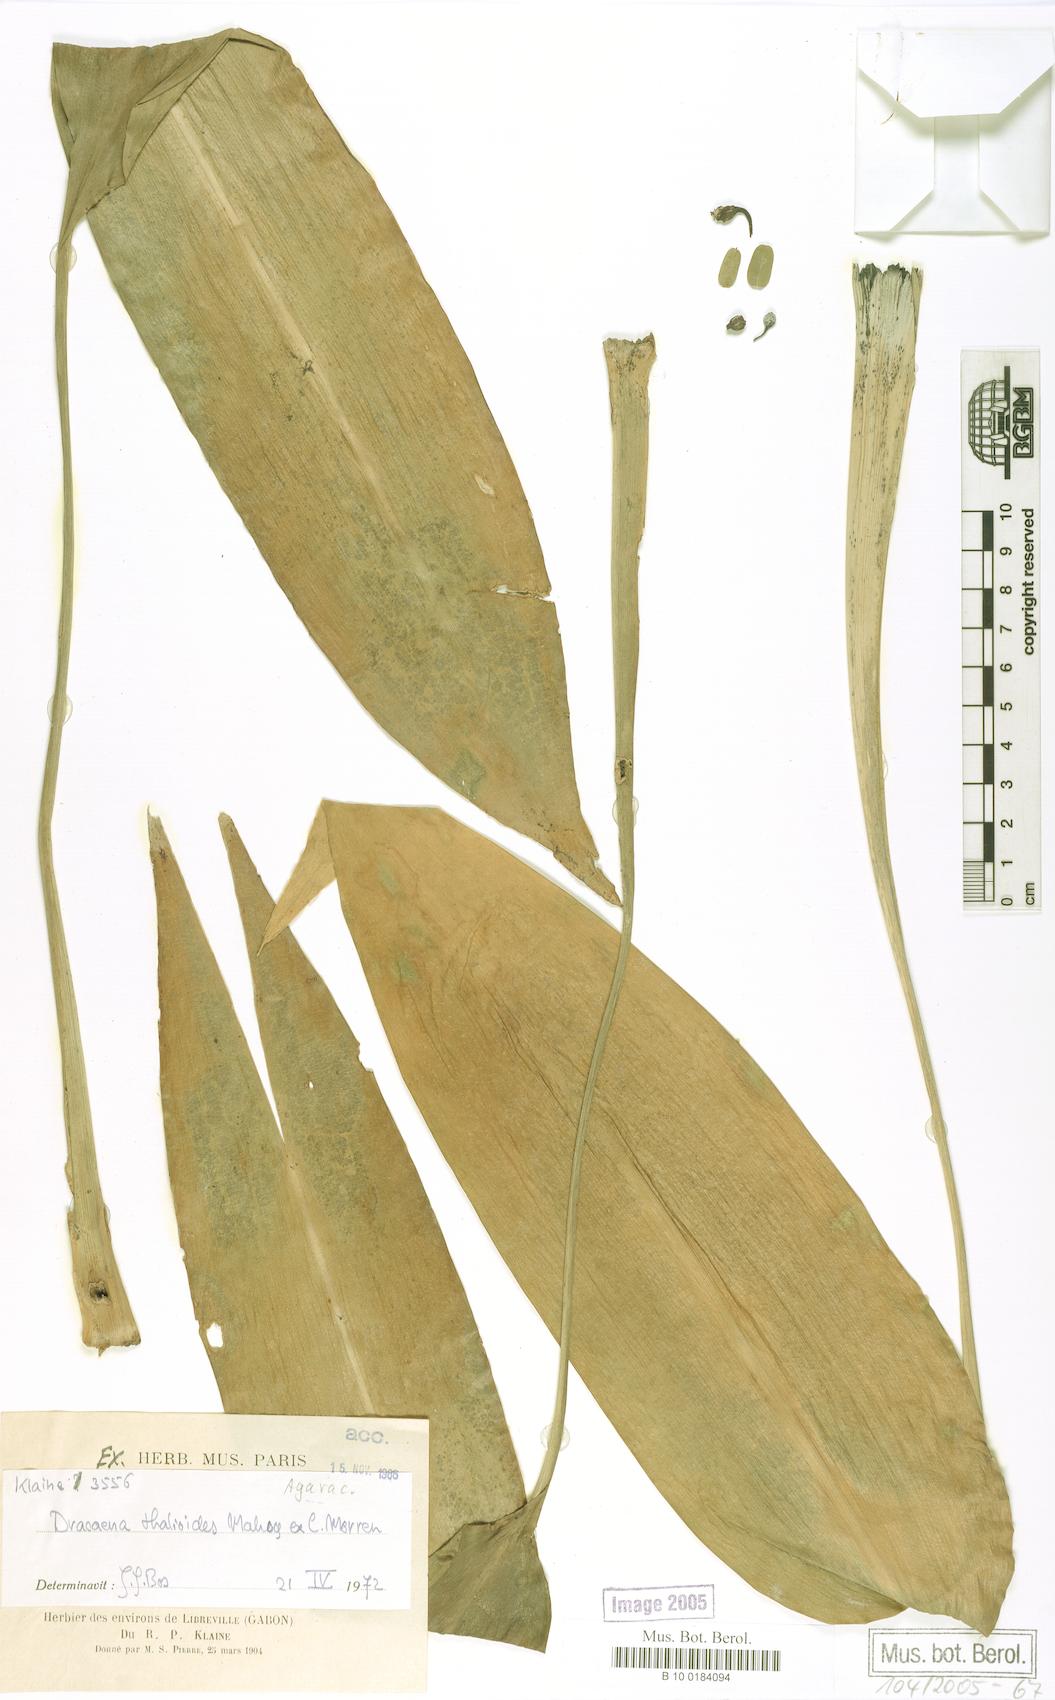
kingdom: Plantae
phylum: Tracheophyta
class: Liliopsida
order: Asparagales
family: Asparagaceae
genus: Dracaena
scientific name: Dracaena aubryana
